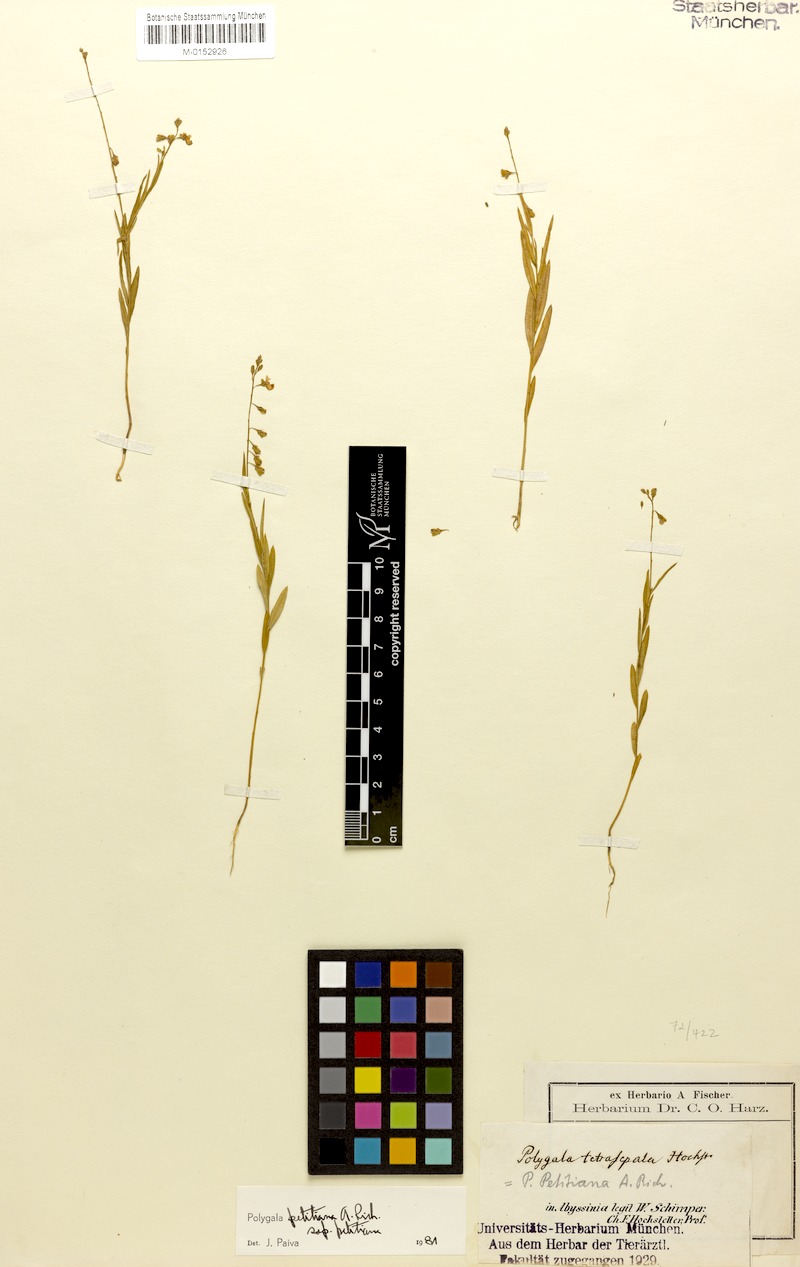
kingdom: Plantae
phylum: Tracheophyta
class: Magnoliopsida
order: Fabales
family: Polygalaceae
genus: Polygala
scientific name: Polygala petitiana
